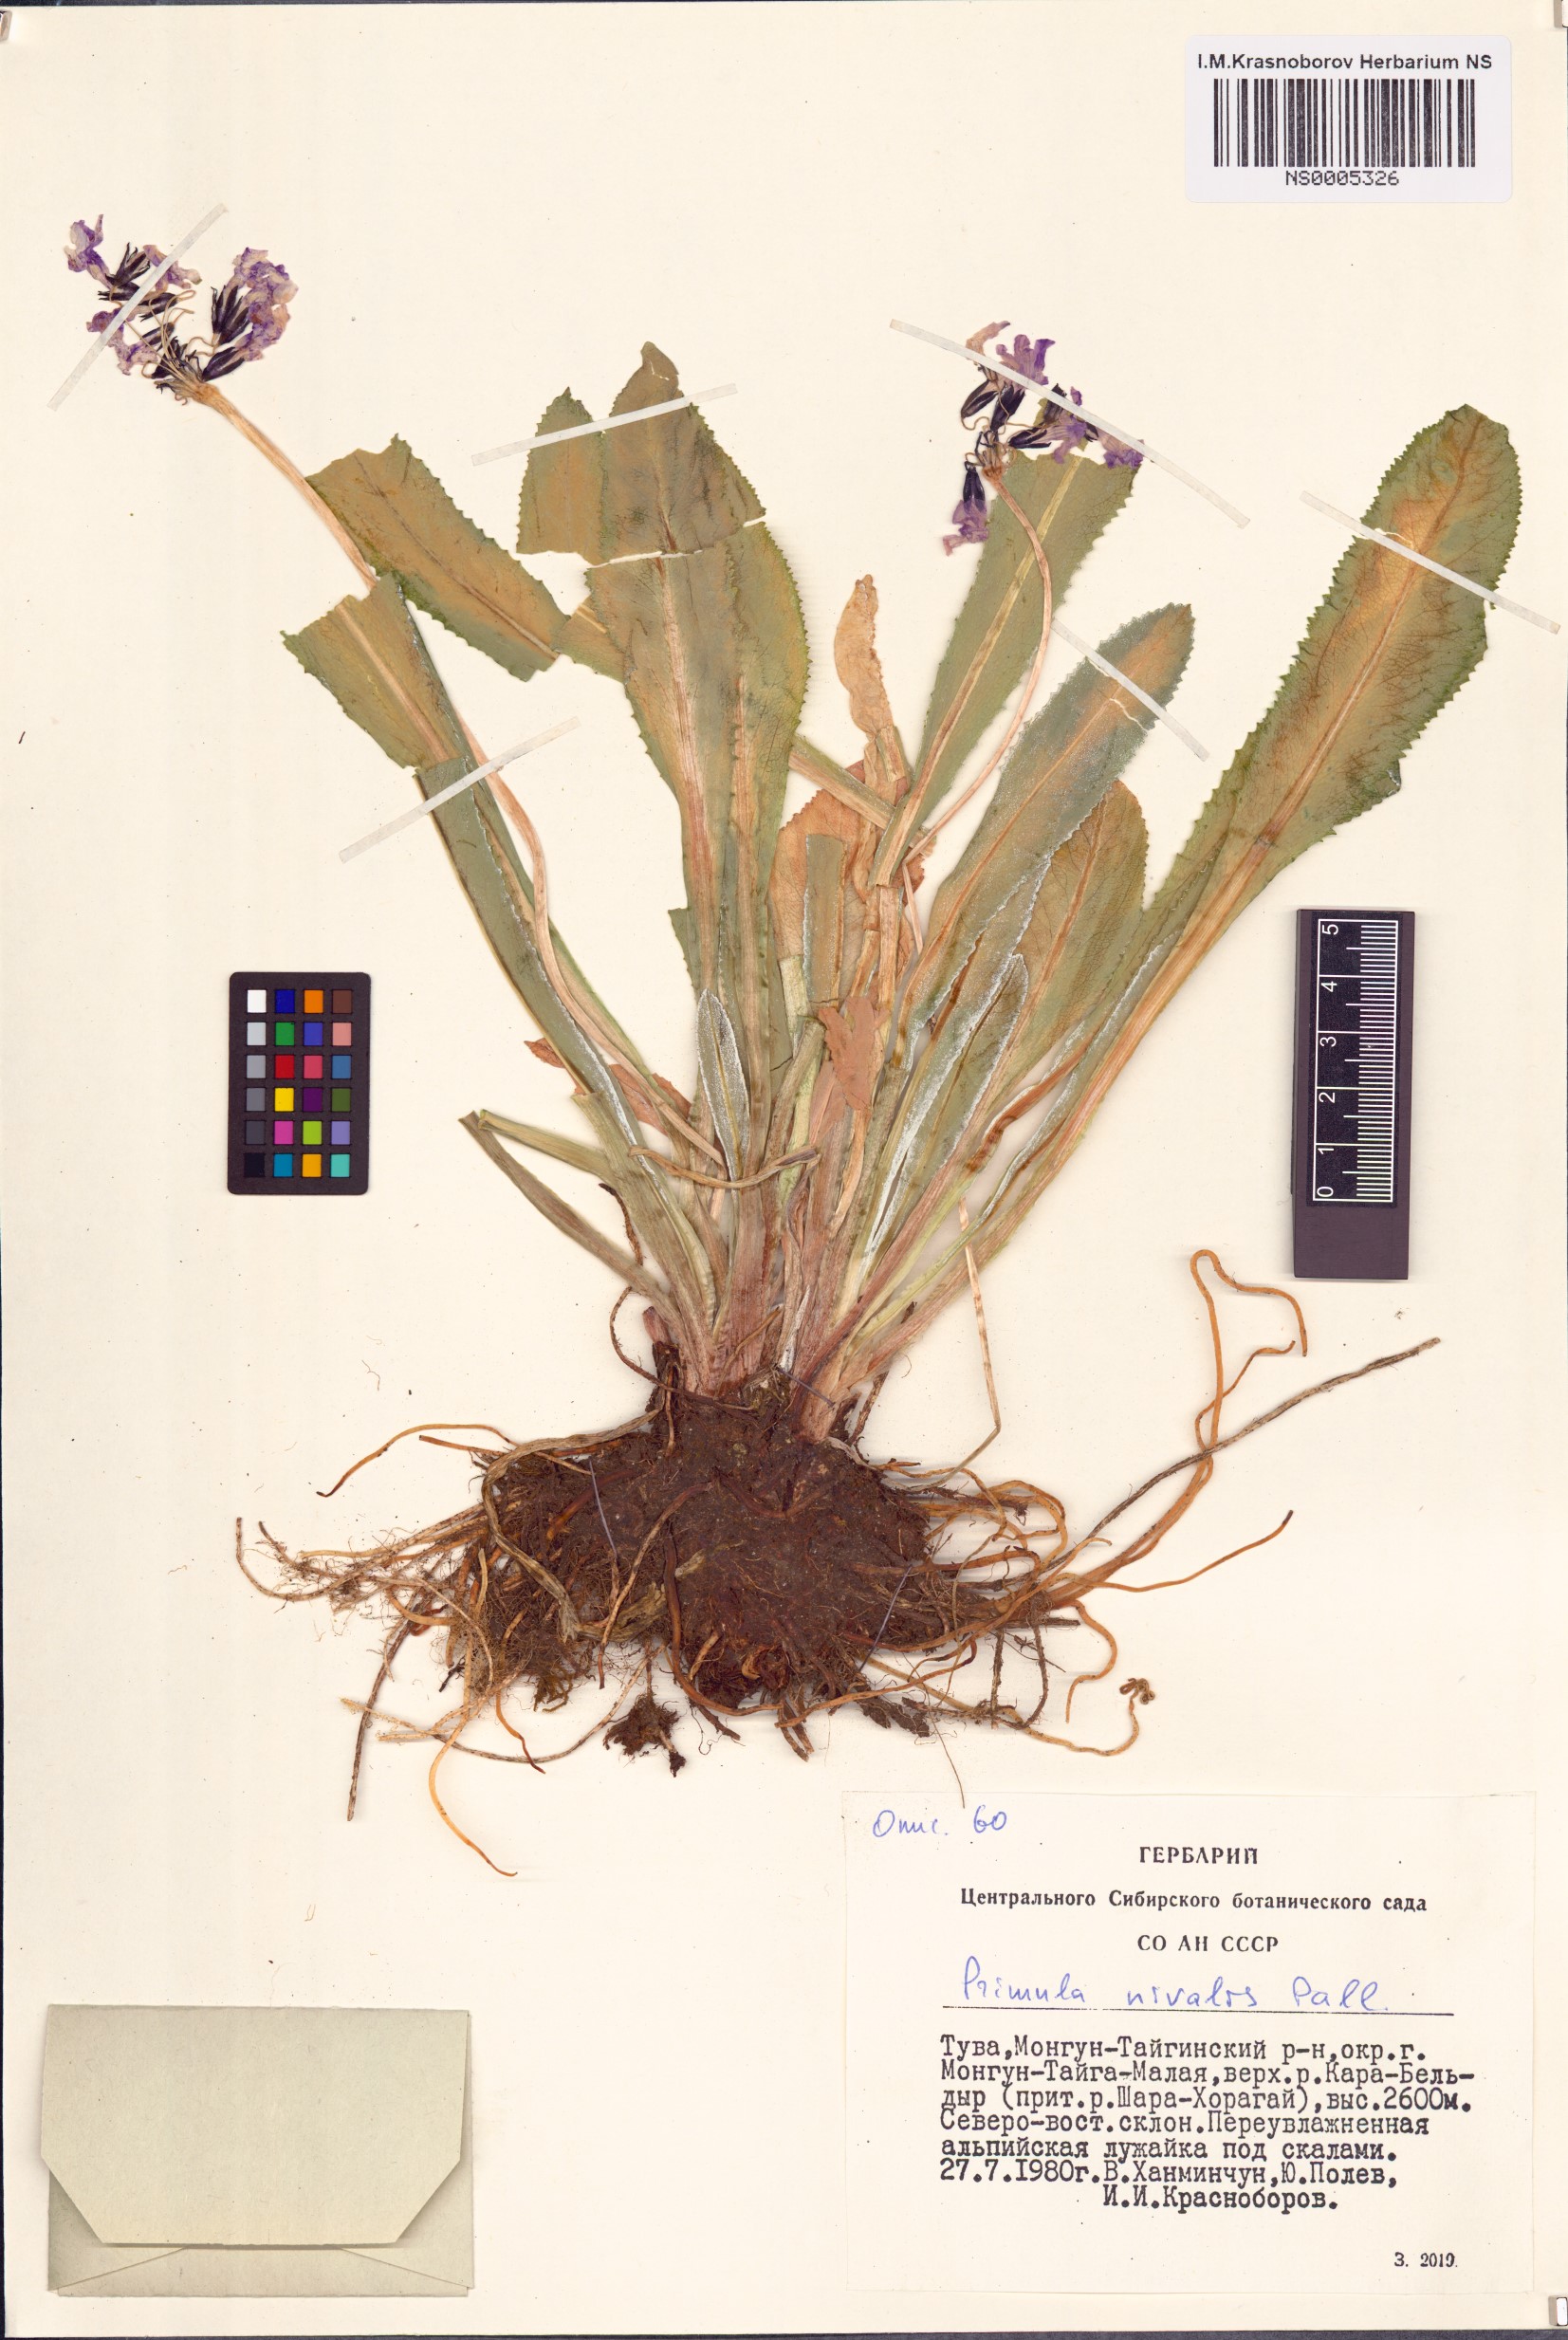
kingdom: Plantae
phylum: Tracheophyta
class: Magnoliopsida
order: Ericales
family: Primulaceae
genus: Primula
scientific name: Primula nivalis
